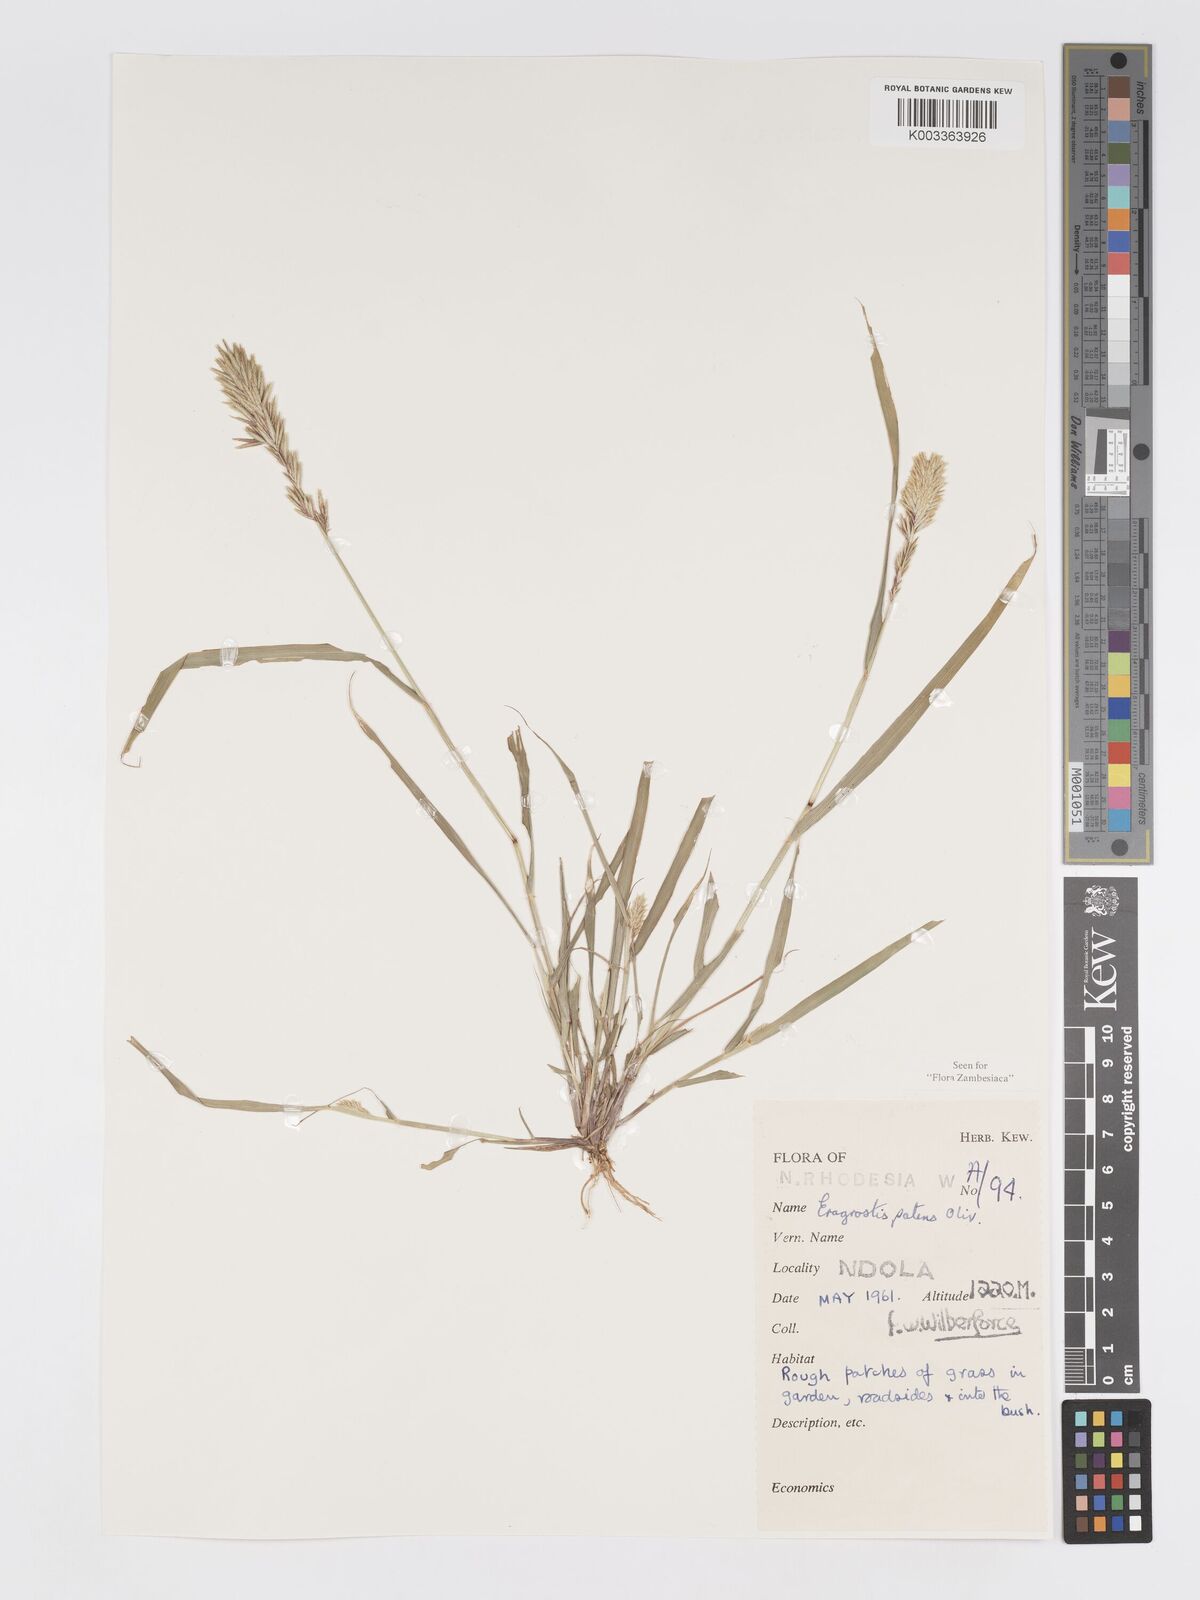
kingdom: Plantae
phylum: Tracheophyta
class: Liliopsida
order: Poales
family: Poaceae
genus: Eragrostis
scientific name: Eragrostis patens
